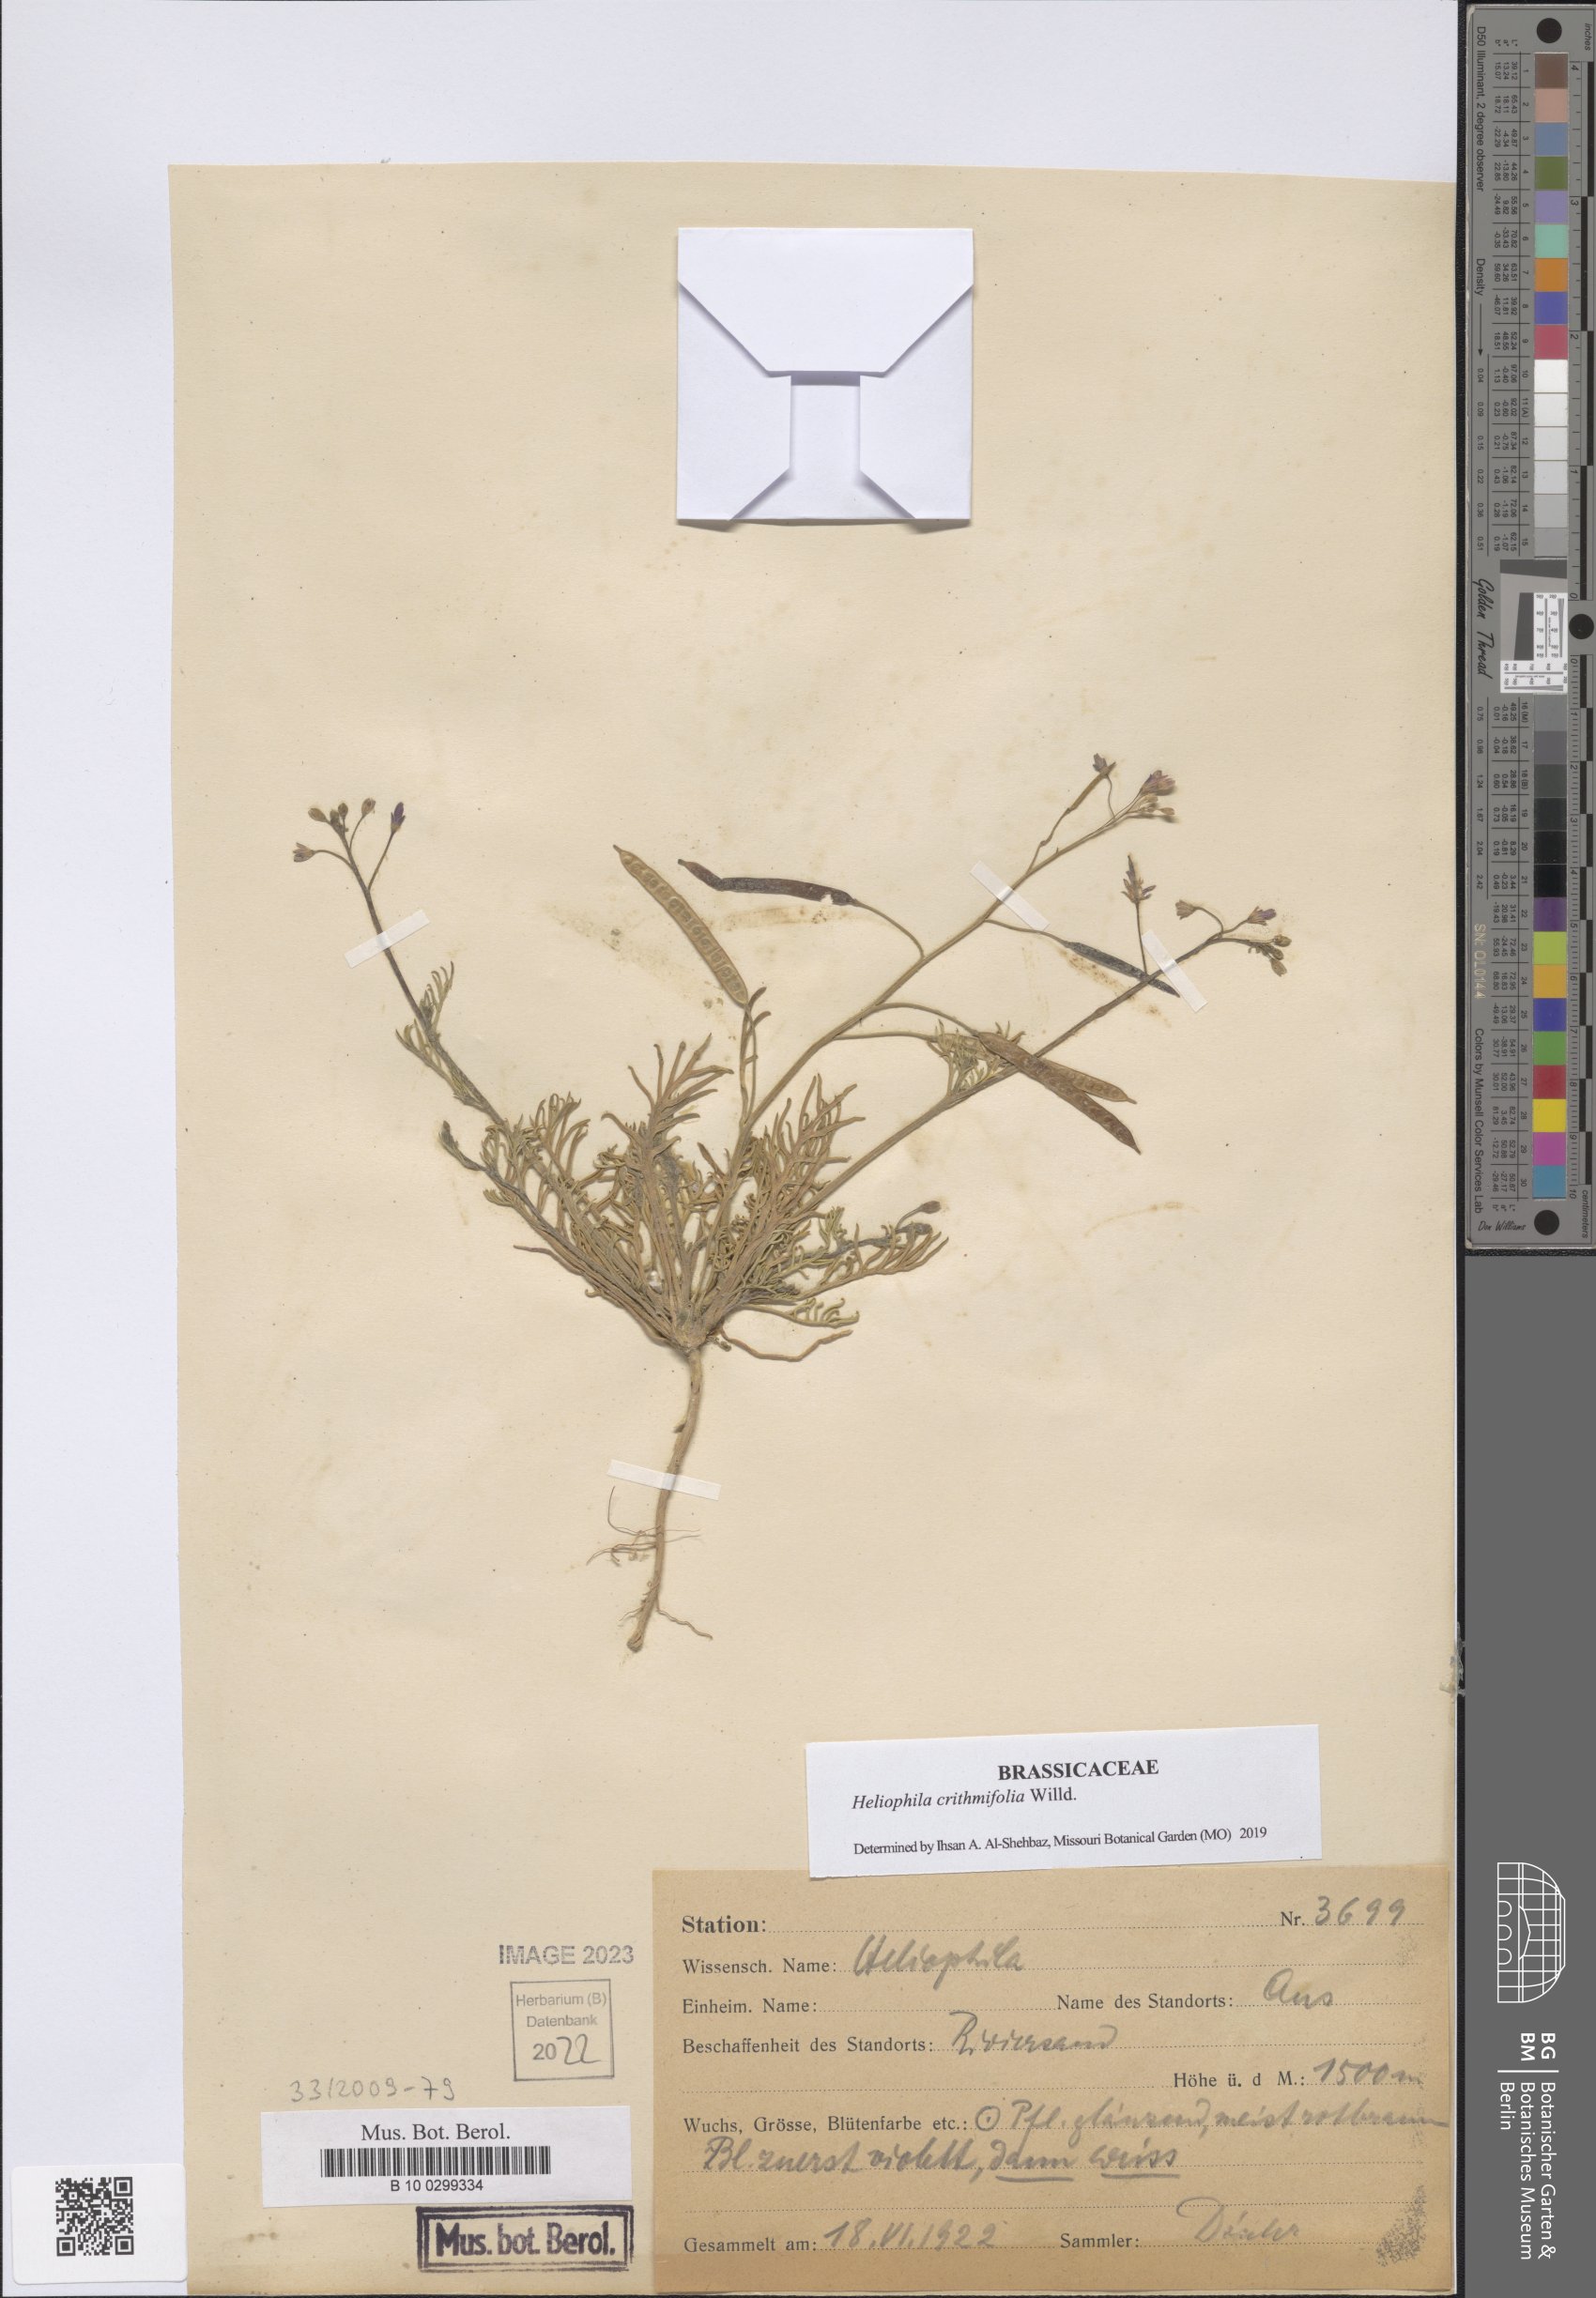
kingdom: Plantae
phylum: Tracheophyta
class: Magnoliopsida
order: Brassicales
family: Brassicaceae
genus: Heliophila
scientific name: Heliophila crithmifolia
